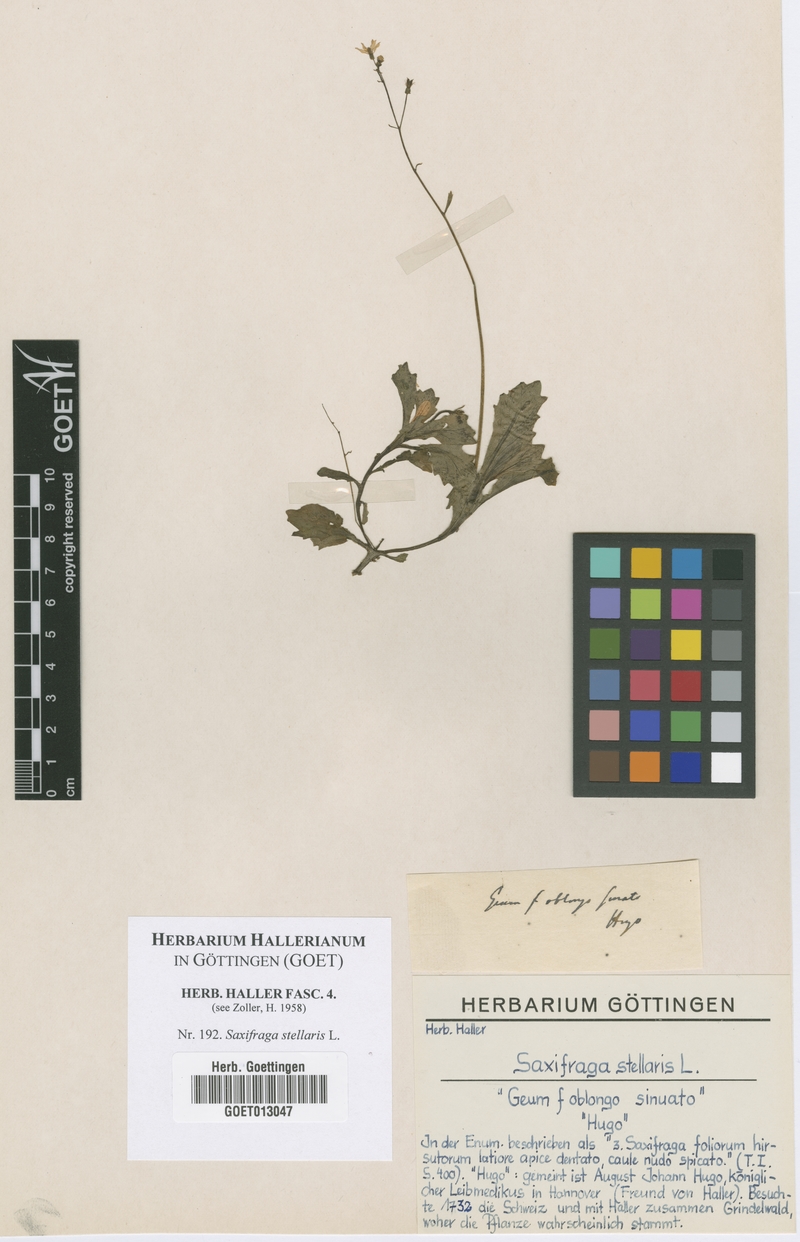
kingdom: Plantae
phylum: Tracheophyta
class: Magnoliopsida
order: Saxifragales
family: Saxifragaceae
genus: Micranthes
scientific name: Micranthes stellaris
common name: Starry saxifrage
